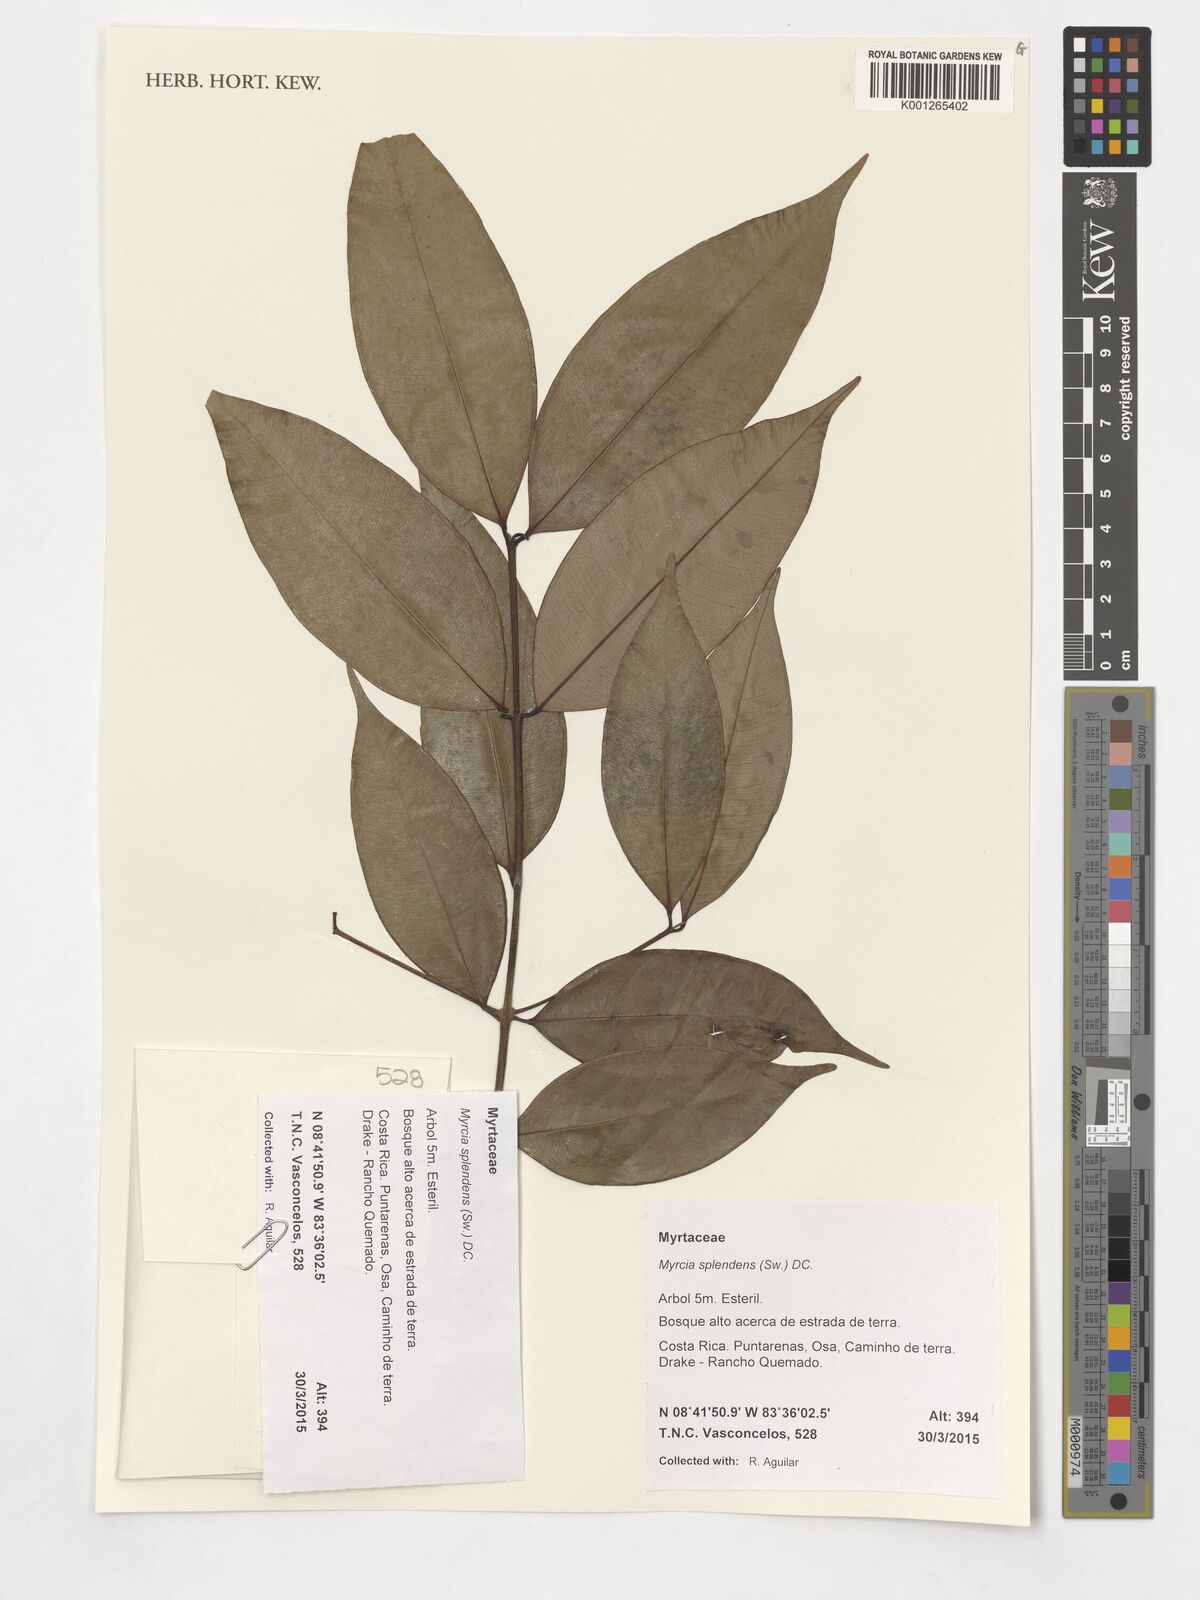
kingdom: Plantae
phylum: Tracheophyta
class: Magnoliopsida
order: Myrtales
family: Myrtaceae
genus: Myrcia
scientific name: Myrcia splendens
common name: Surinam cherry
